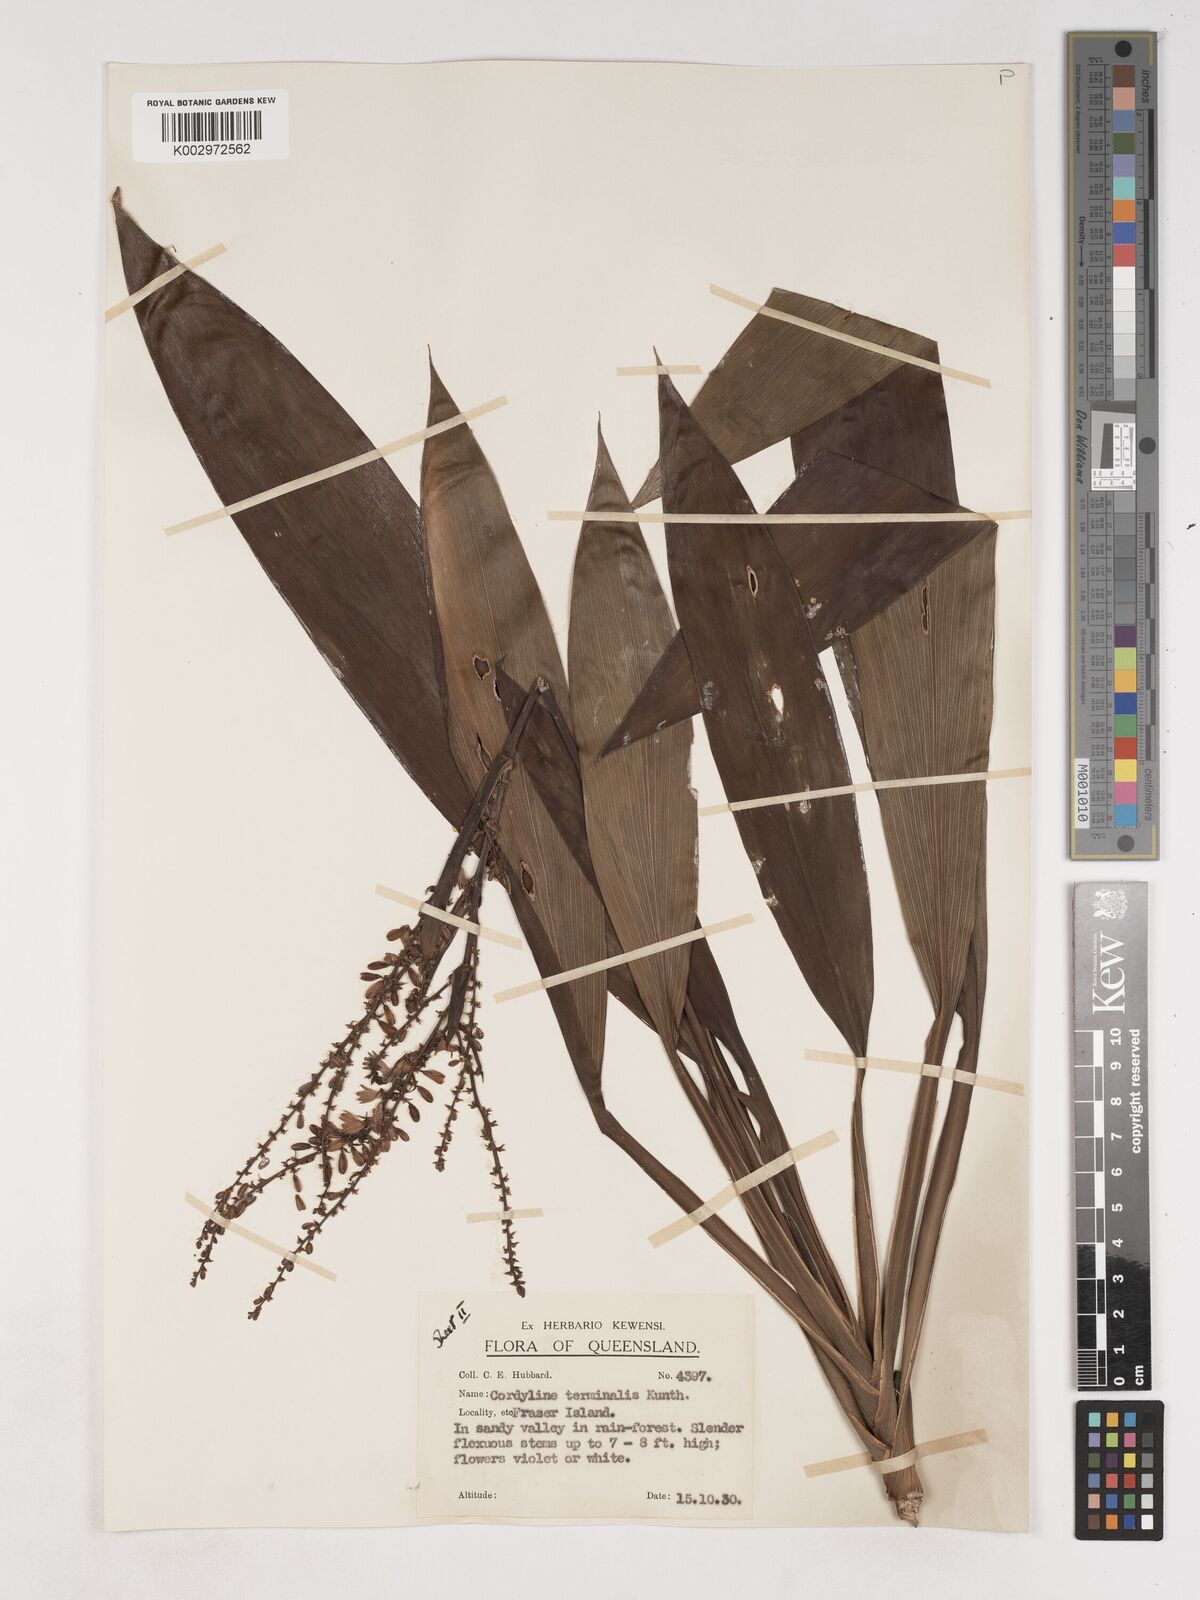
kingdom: Plantae
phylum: Tracheophyta
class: Liliopsida
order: Asparagales
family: Asparagaceae
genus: Cordyline
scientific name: Cordyline fruticosa
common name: Good-luck-plant
